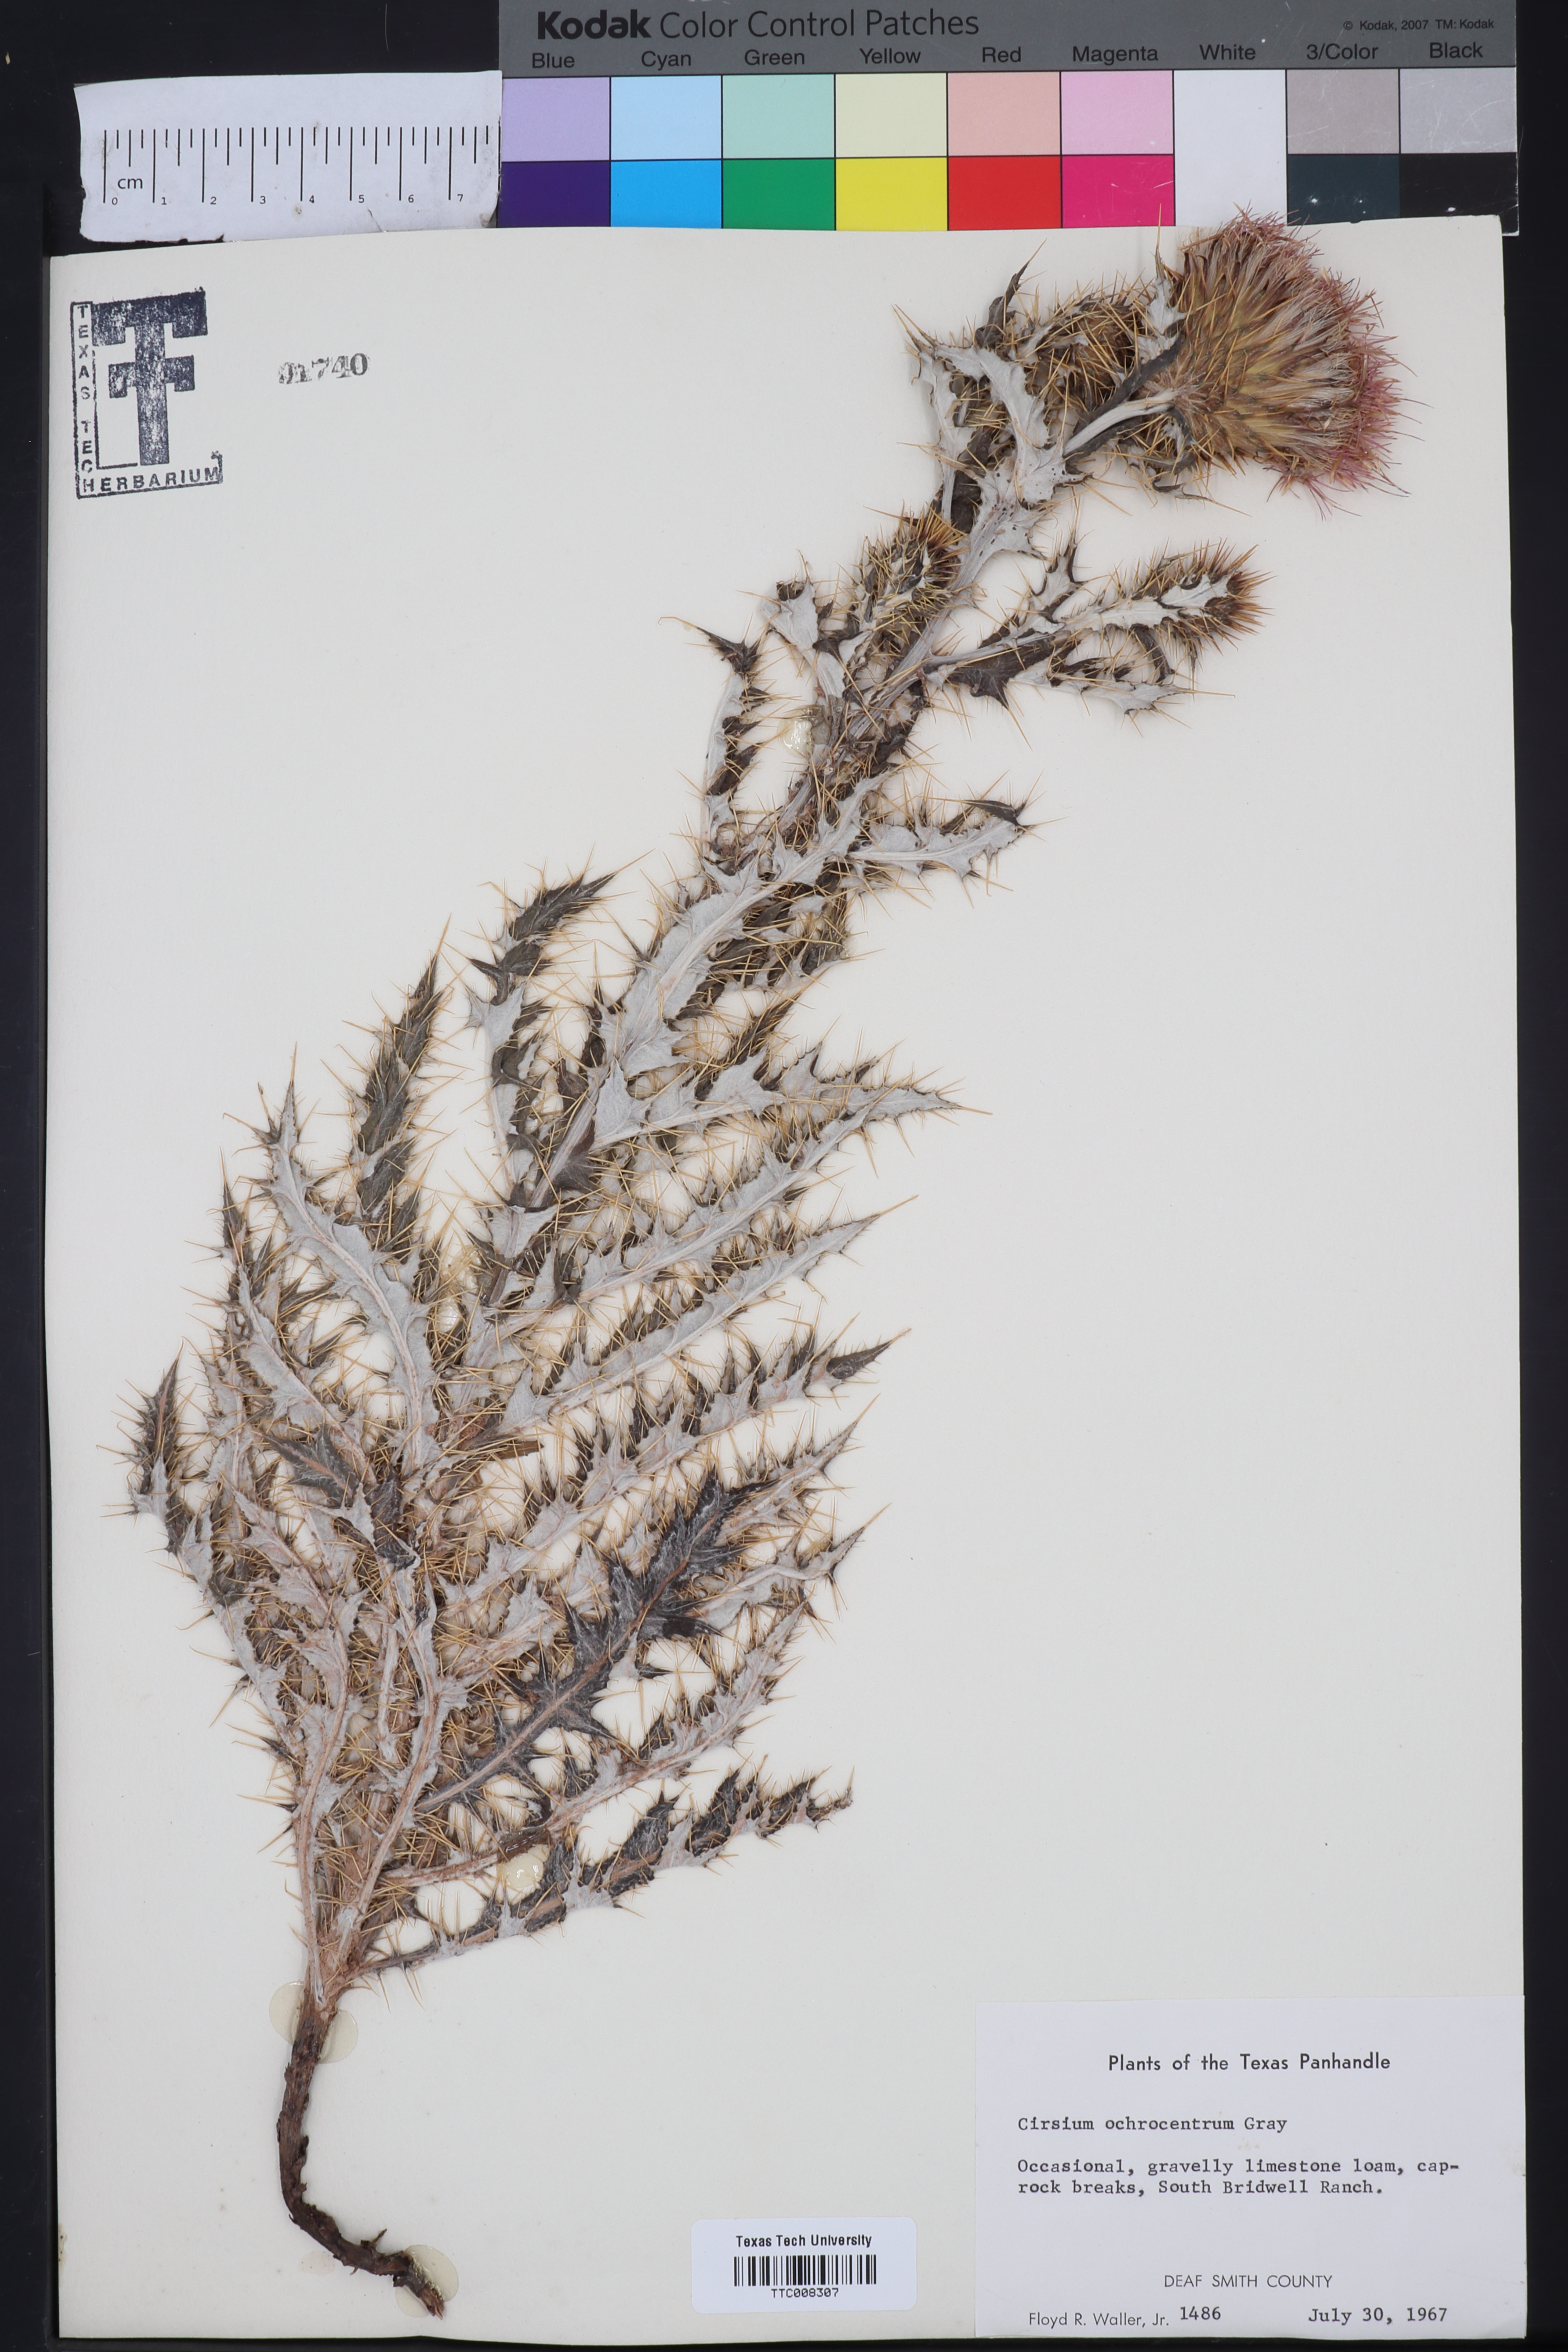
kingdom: Plantae
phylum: Tracheophyta
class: Magnoliopsida
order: Asterales
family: Asteraceae
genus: Cirsium
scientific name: Cirsium ochrocentrum
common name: Yellow-spine thistle
